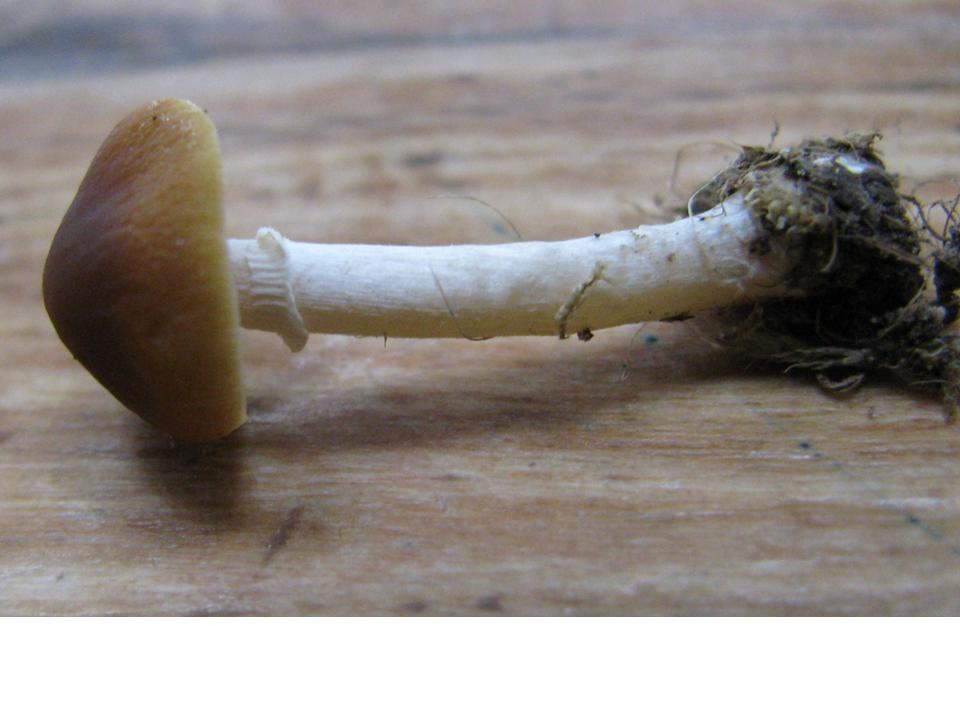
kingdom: Fungi
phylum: Basidiomycota
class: Agaricomycetes
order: Agaricales
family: Bolbitiaceae
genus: Conocybe
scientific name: Conocybe arrhenii
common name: ring-dansehat
